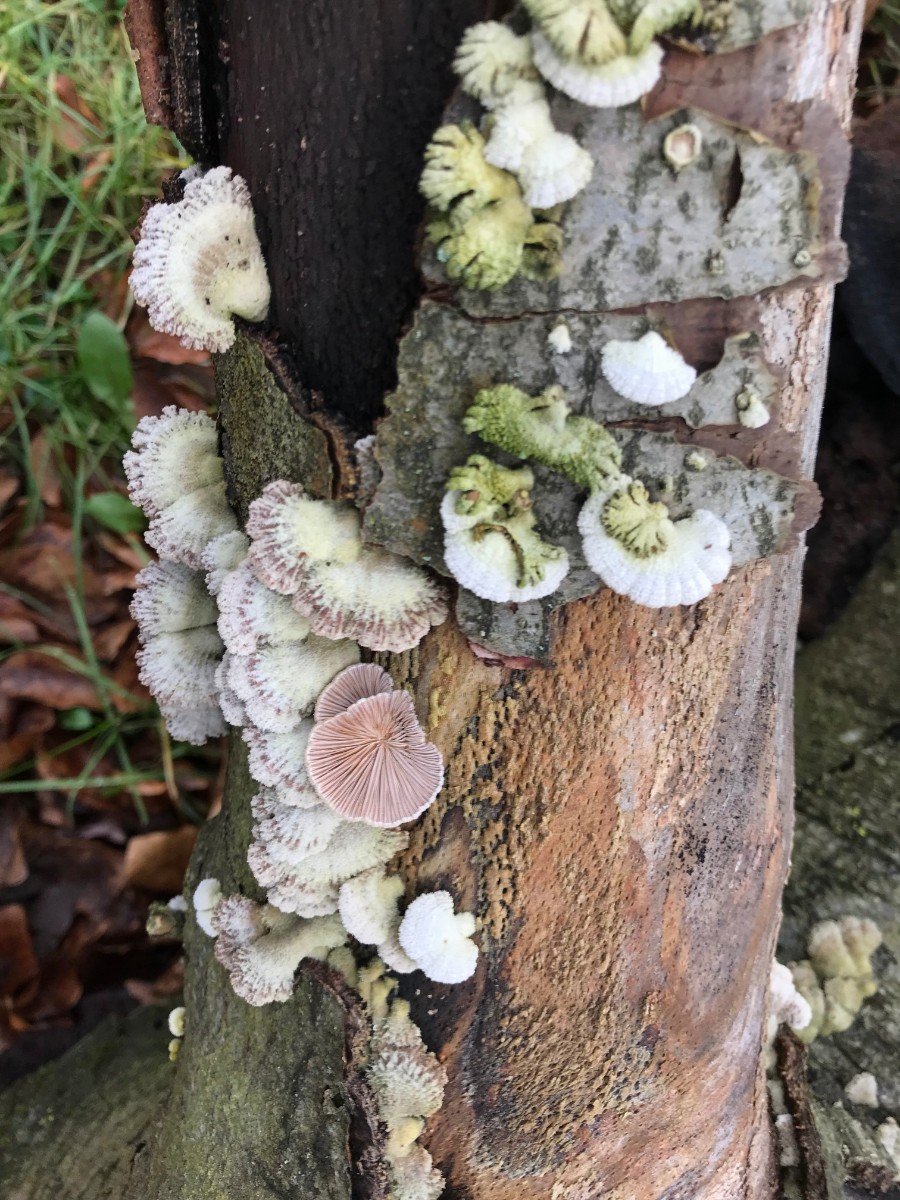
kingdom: Fungi
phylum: Basidiomycota
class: Agaricomycetes
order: Agaricales
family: Schizophyllaceae
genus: Schizophyllum
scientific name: Schizophyllum commune
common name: kløvblad
